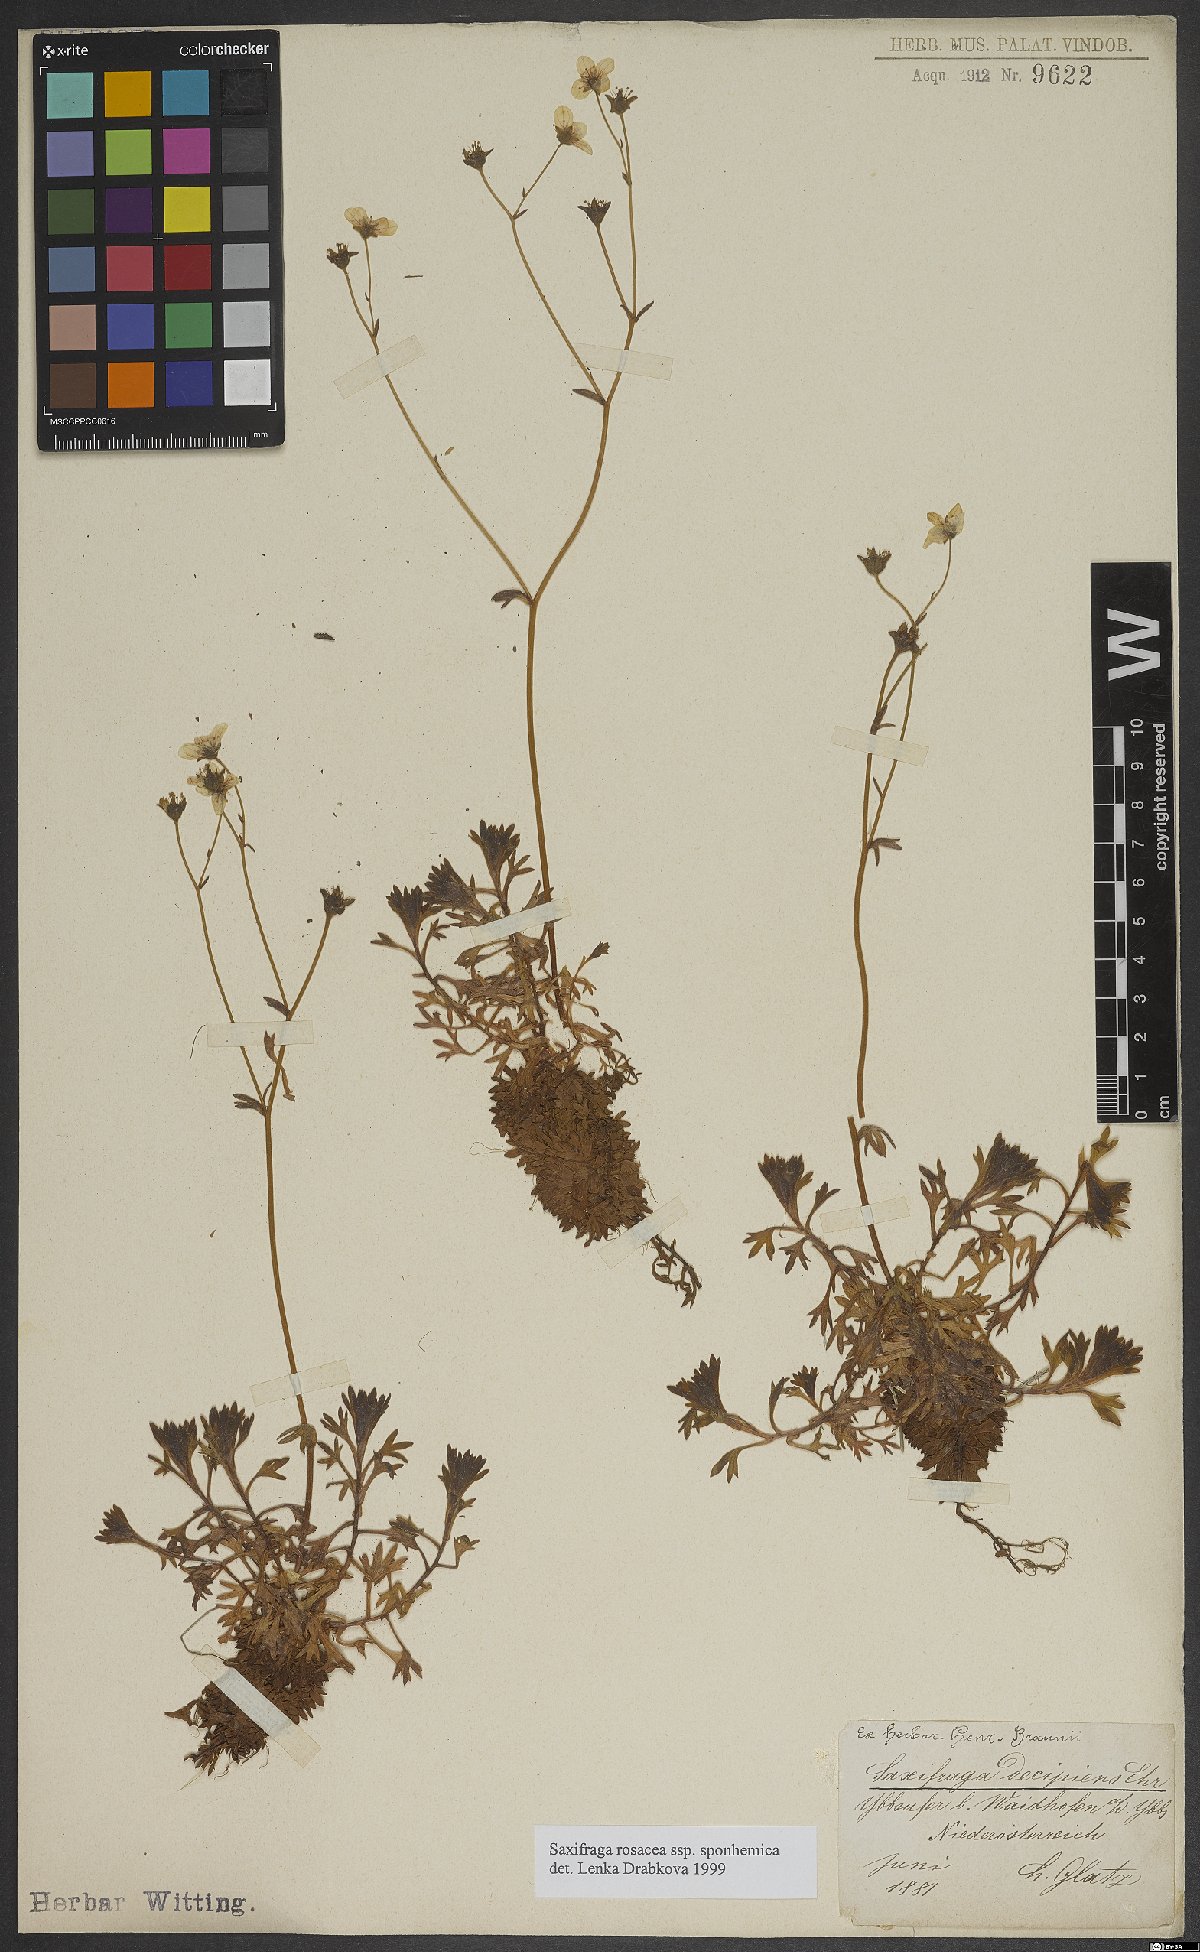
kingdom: Plantae
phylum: Tracheophyta
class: Magnoliopsida
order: Saxifragales
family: Saxifragaceae
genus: Saxifraga
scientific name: Saxifraga rosacea
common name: Irish saxifrage
